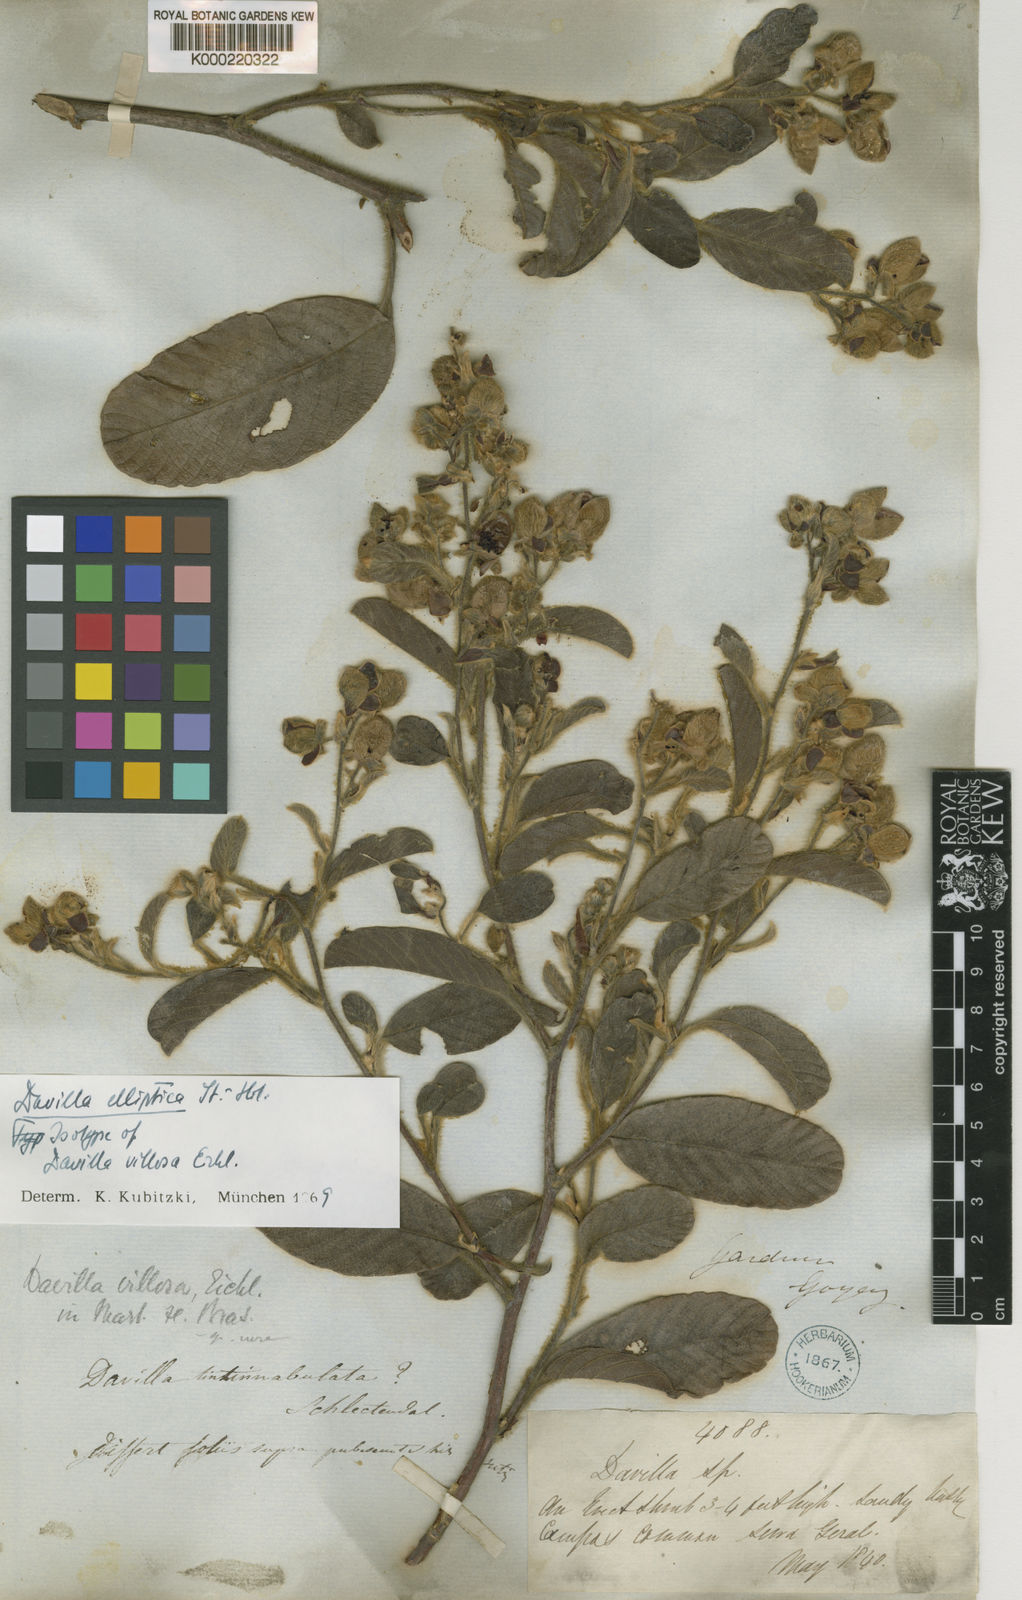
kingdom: Plantae
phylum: Tracheophyta
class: Magnoliopsida
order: Dilleniales
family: Dilleniaceae
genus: Davilla
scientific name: Davilla elliptica
